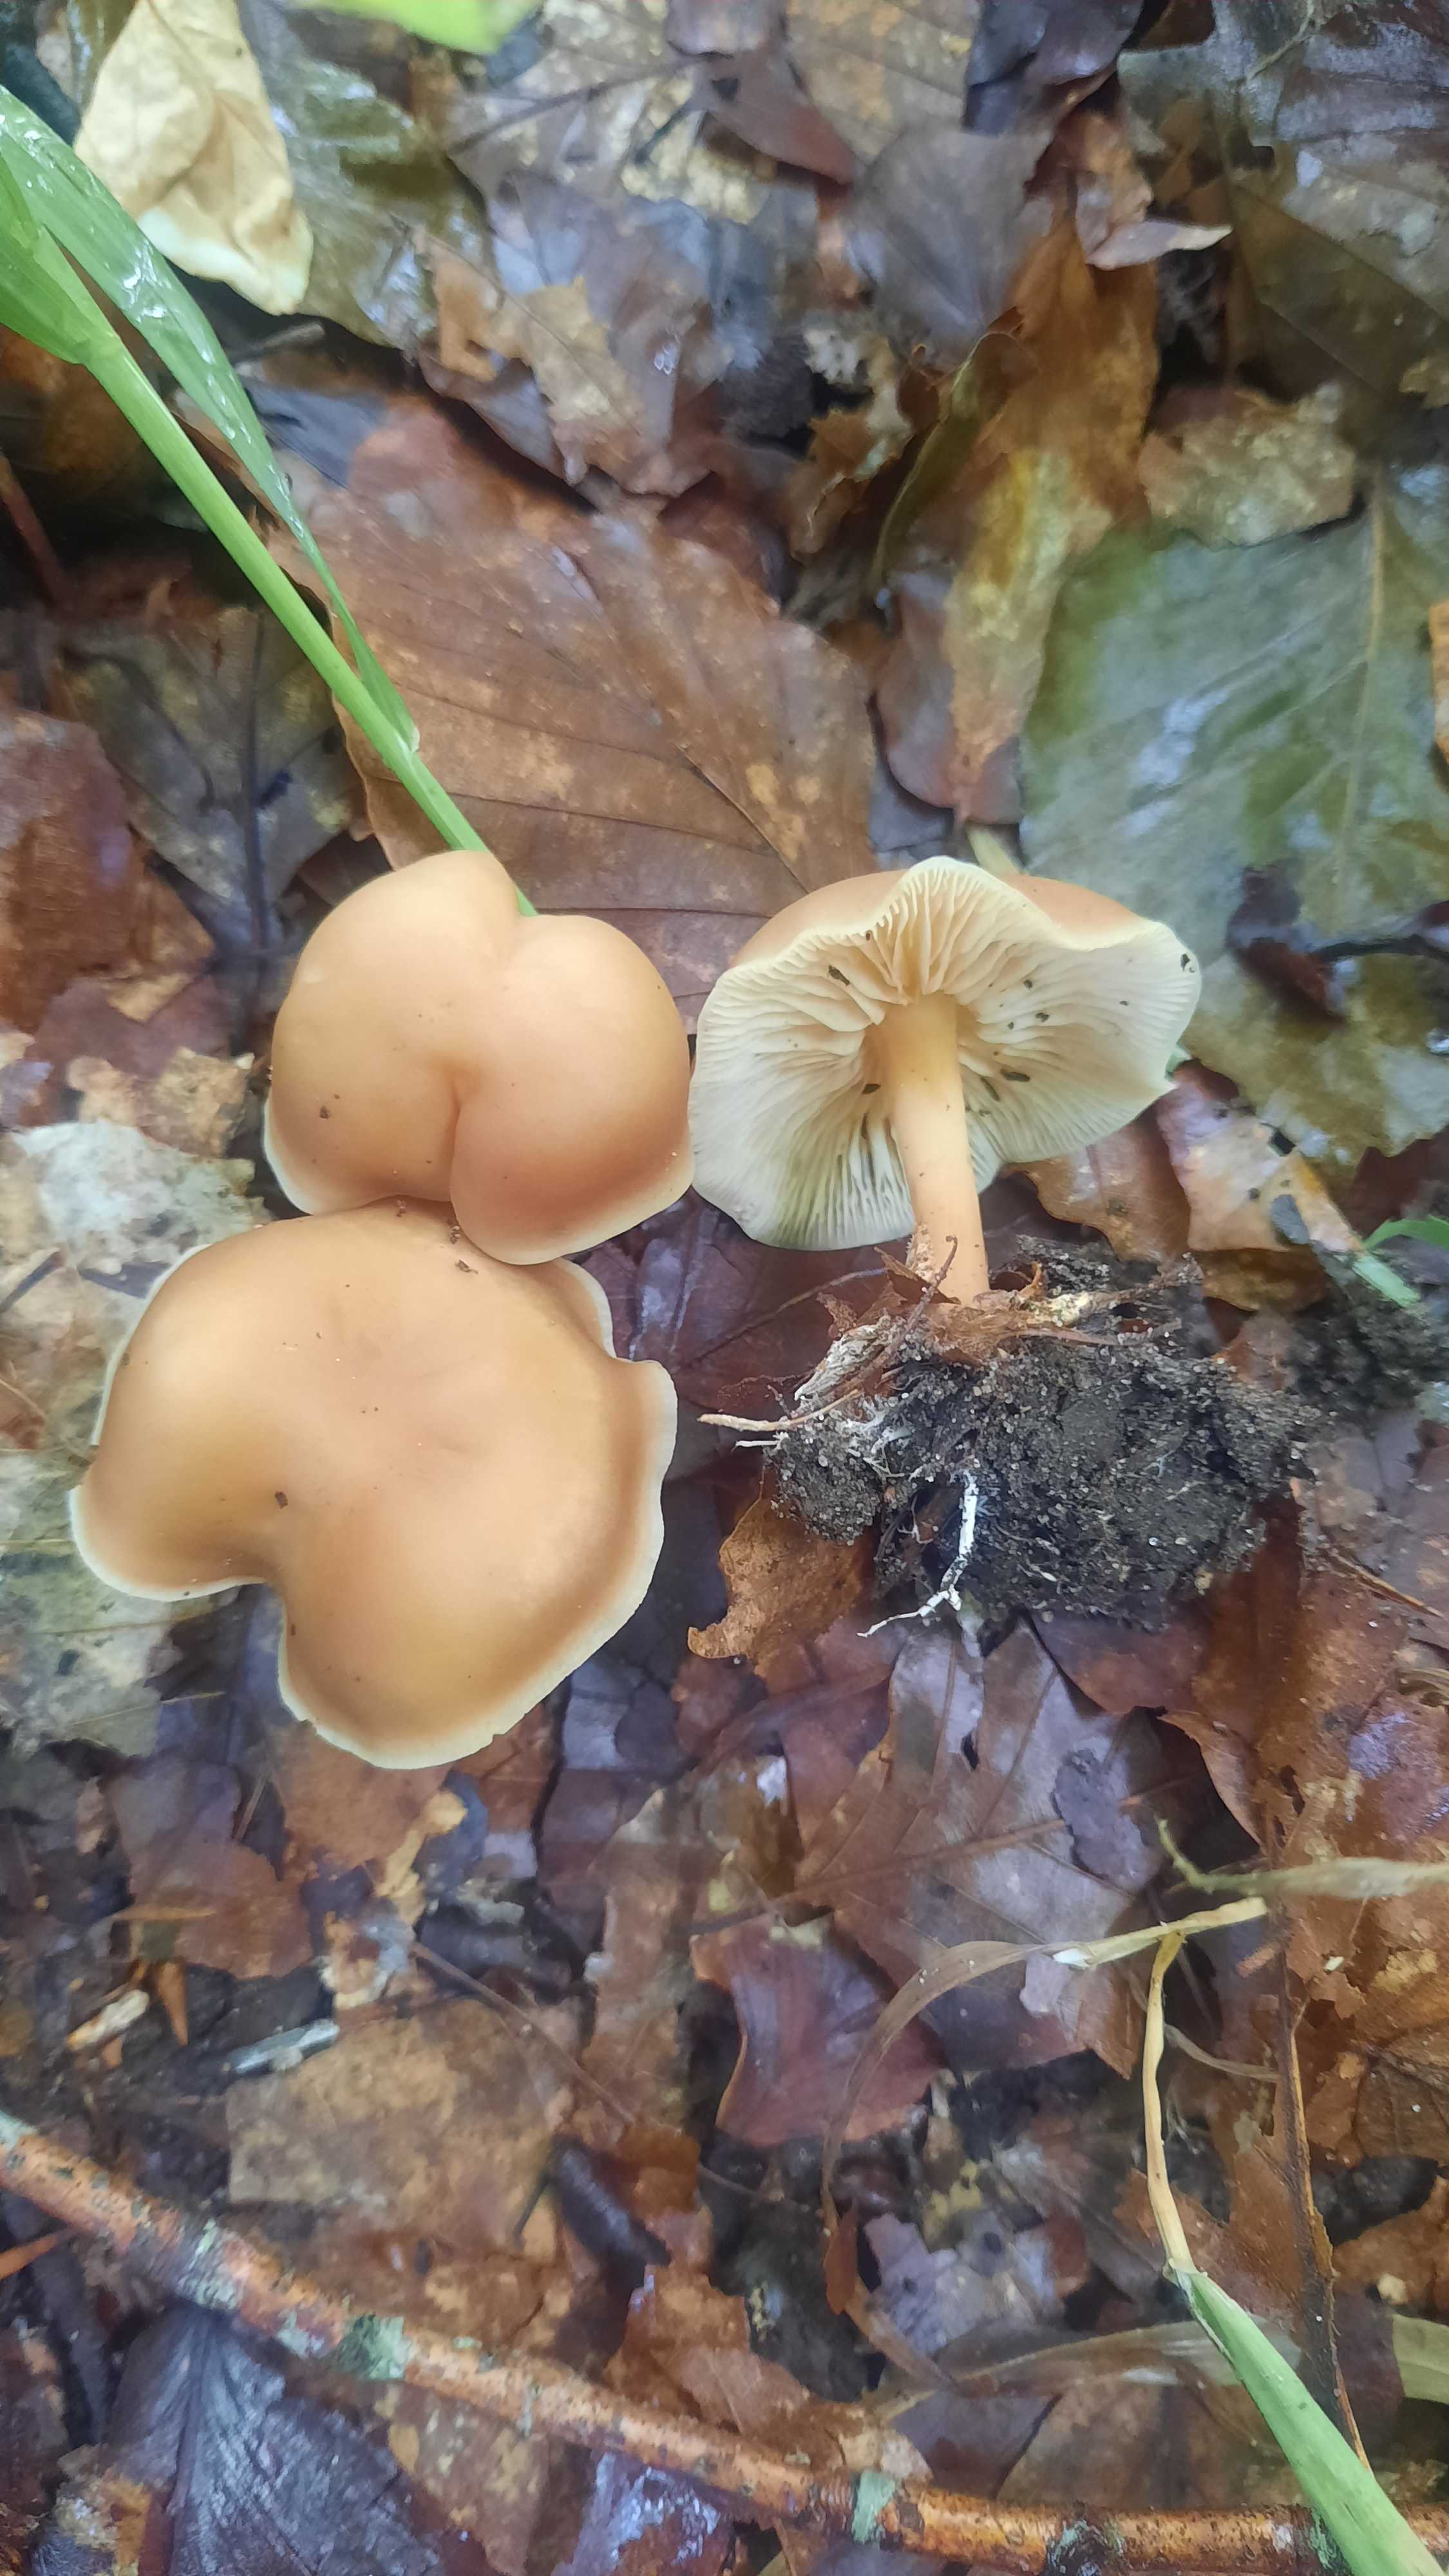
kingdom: Fungi
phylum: Basidiomycota
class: Agaricomycetes
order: Agaricales
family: Omphalotaceae
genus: Gymnopus
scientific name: Gymnopus dryophilus
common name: løv-fladhat
